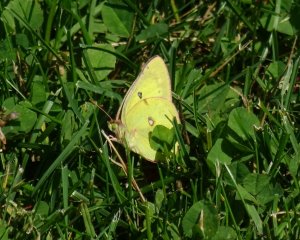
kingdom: Animalia
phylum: Arthropoda
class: Insecta
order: Lepidoptera
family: Pieridae
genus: Colias
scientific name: Colias philodice
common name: Clouded Sulphur
